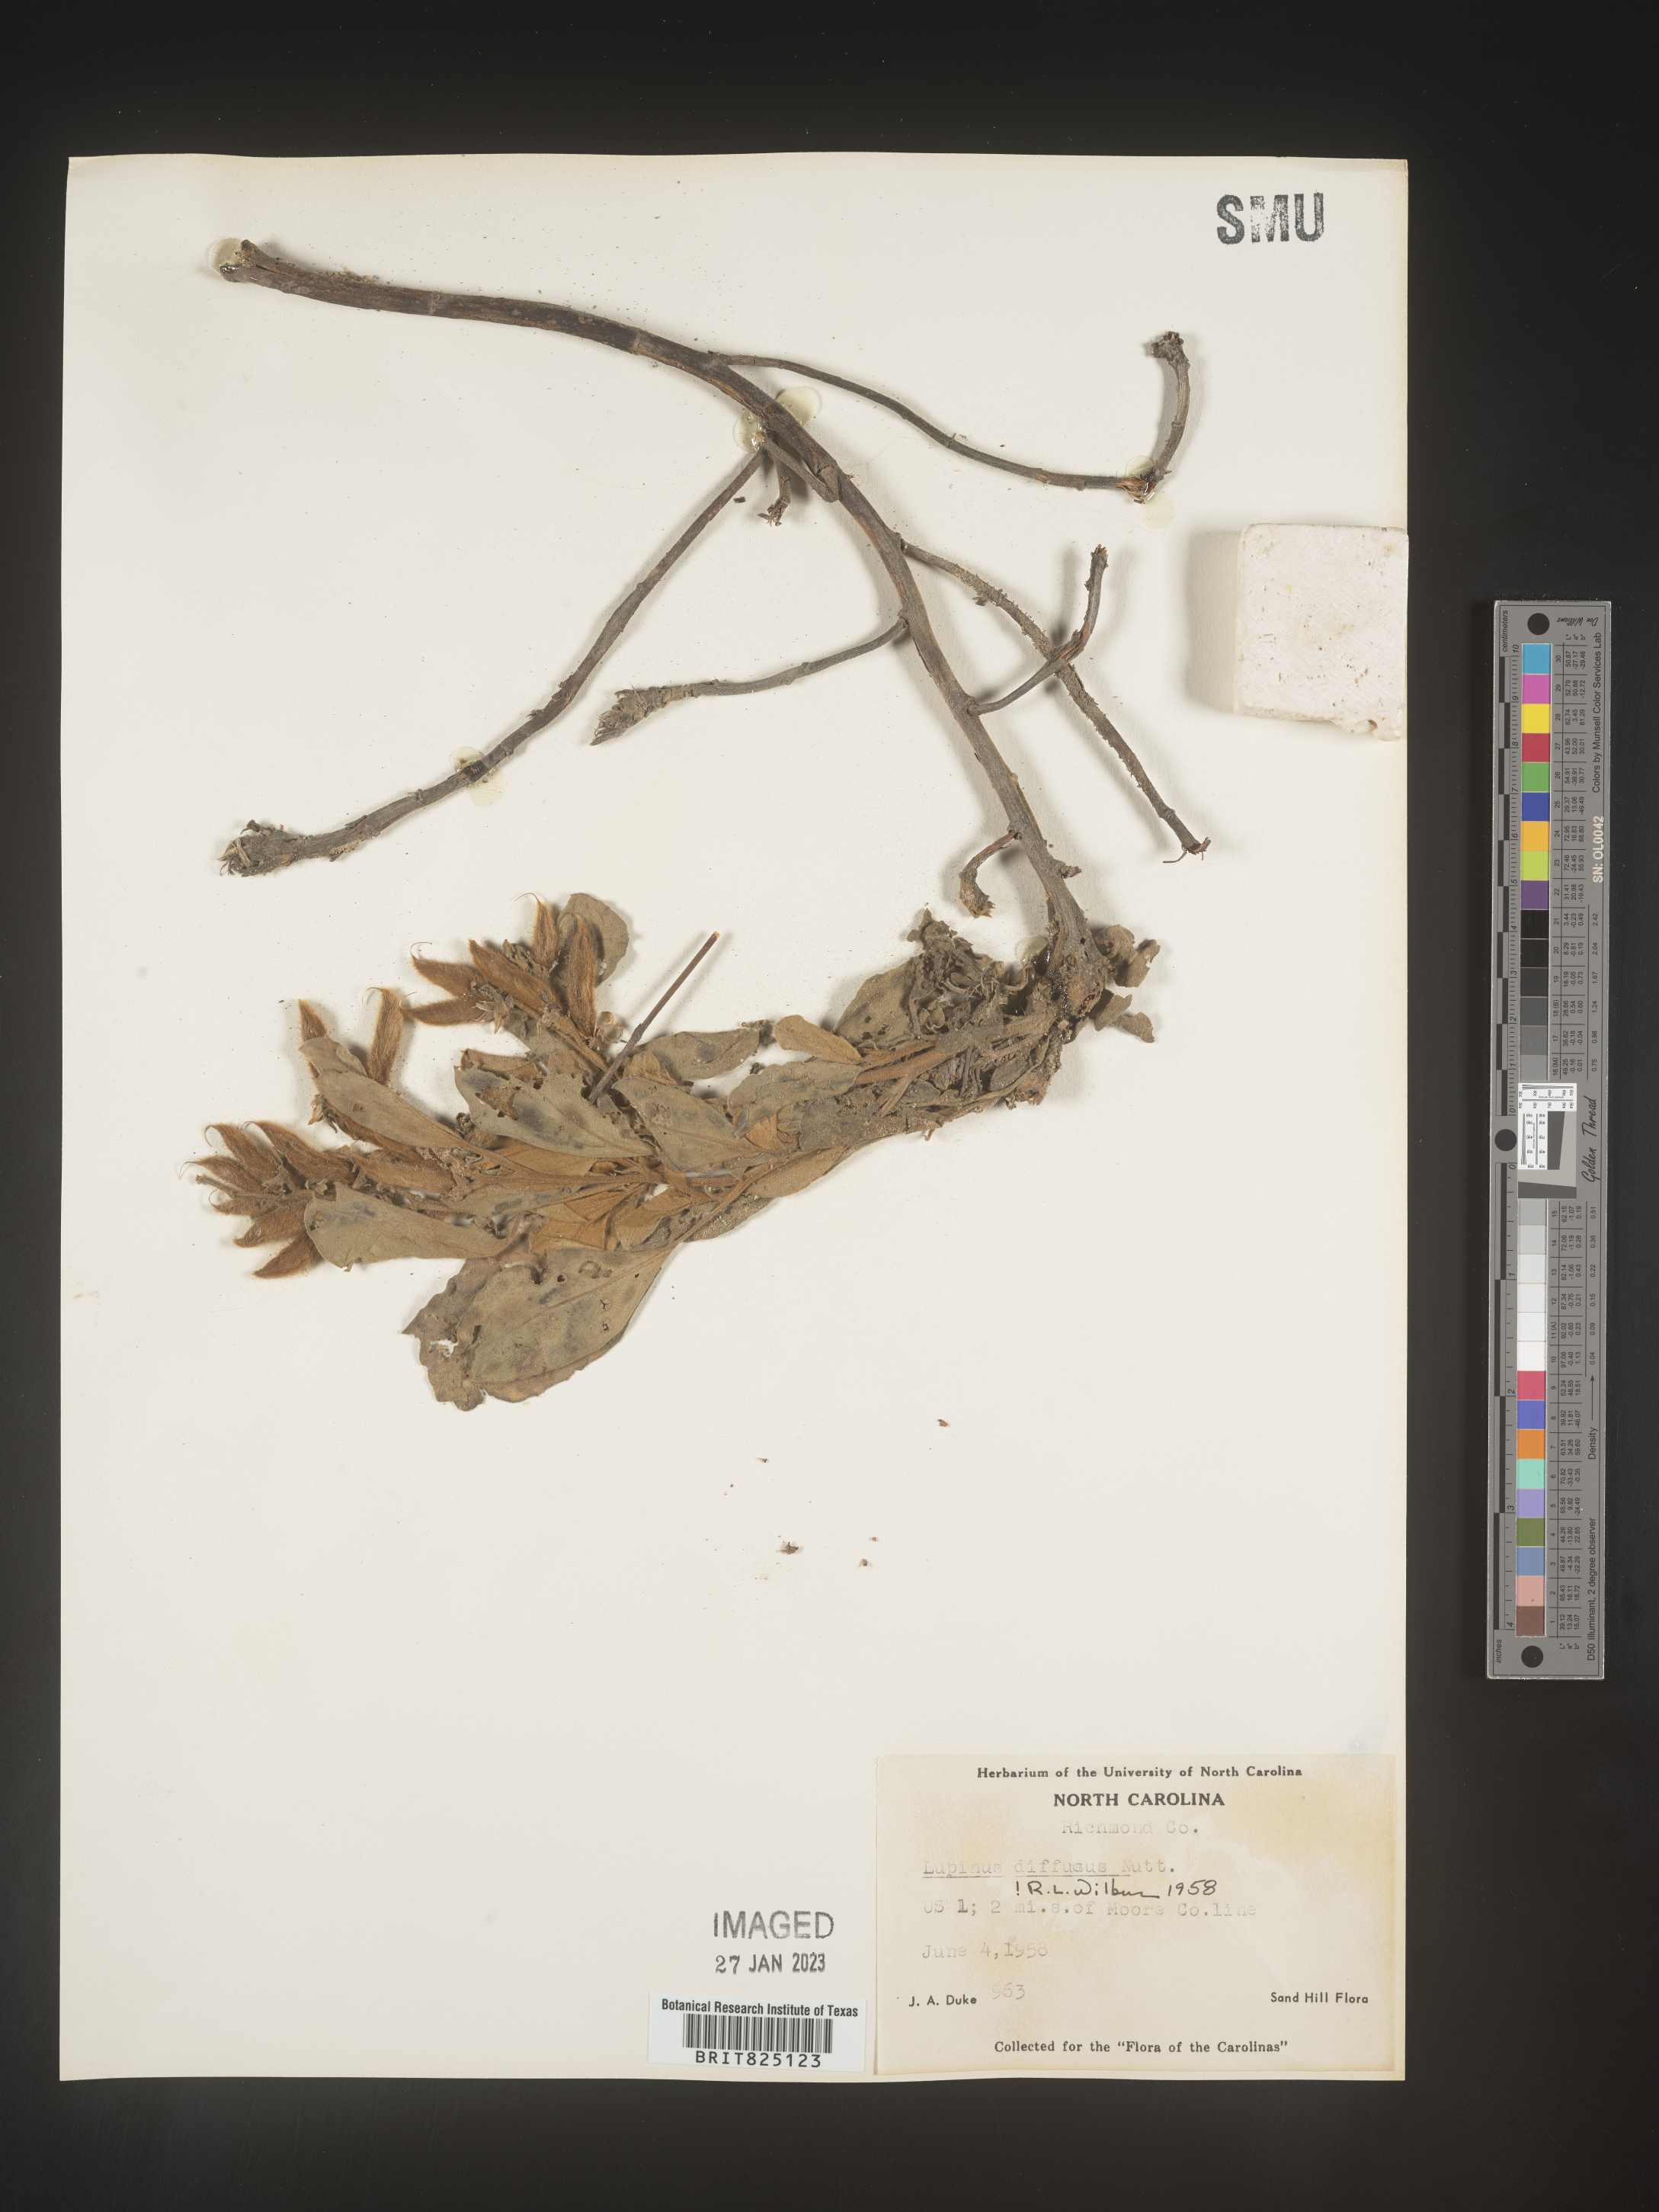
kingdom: Plantae
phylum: Tracheophyta
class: Magnoliopsida
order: Fabales
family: Fabaceae
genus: Lupinus
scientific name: Lupinus diffusus
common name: Oak ridge lupine
